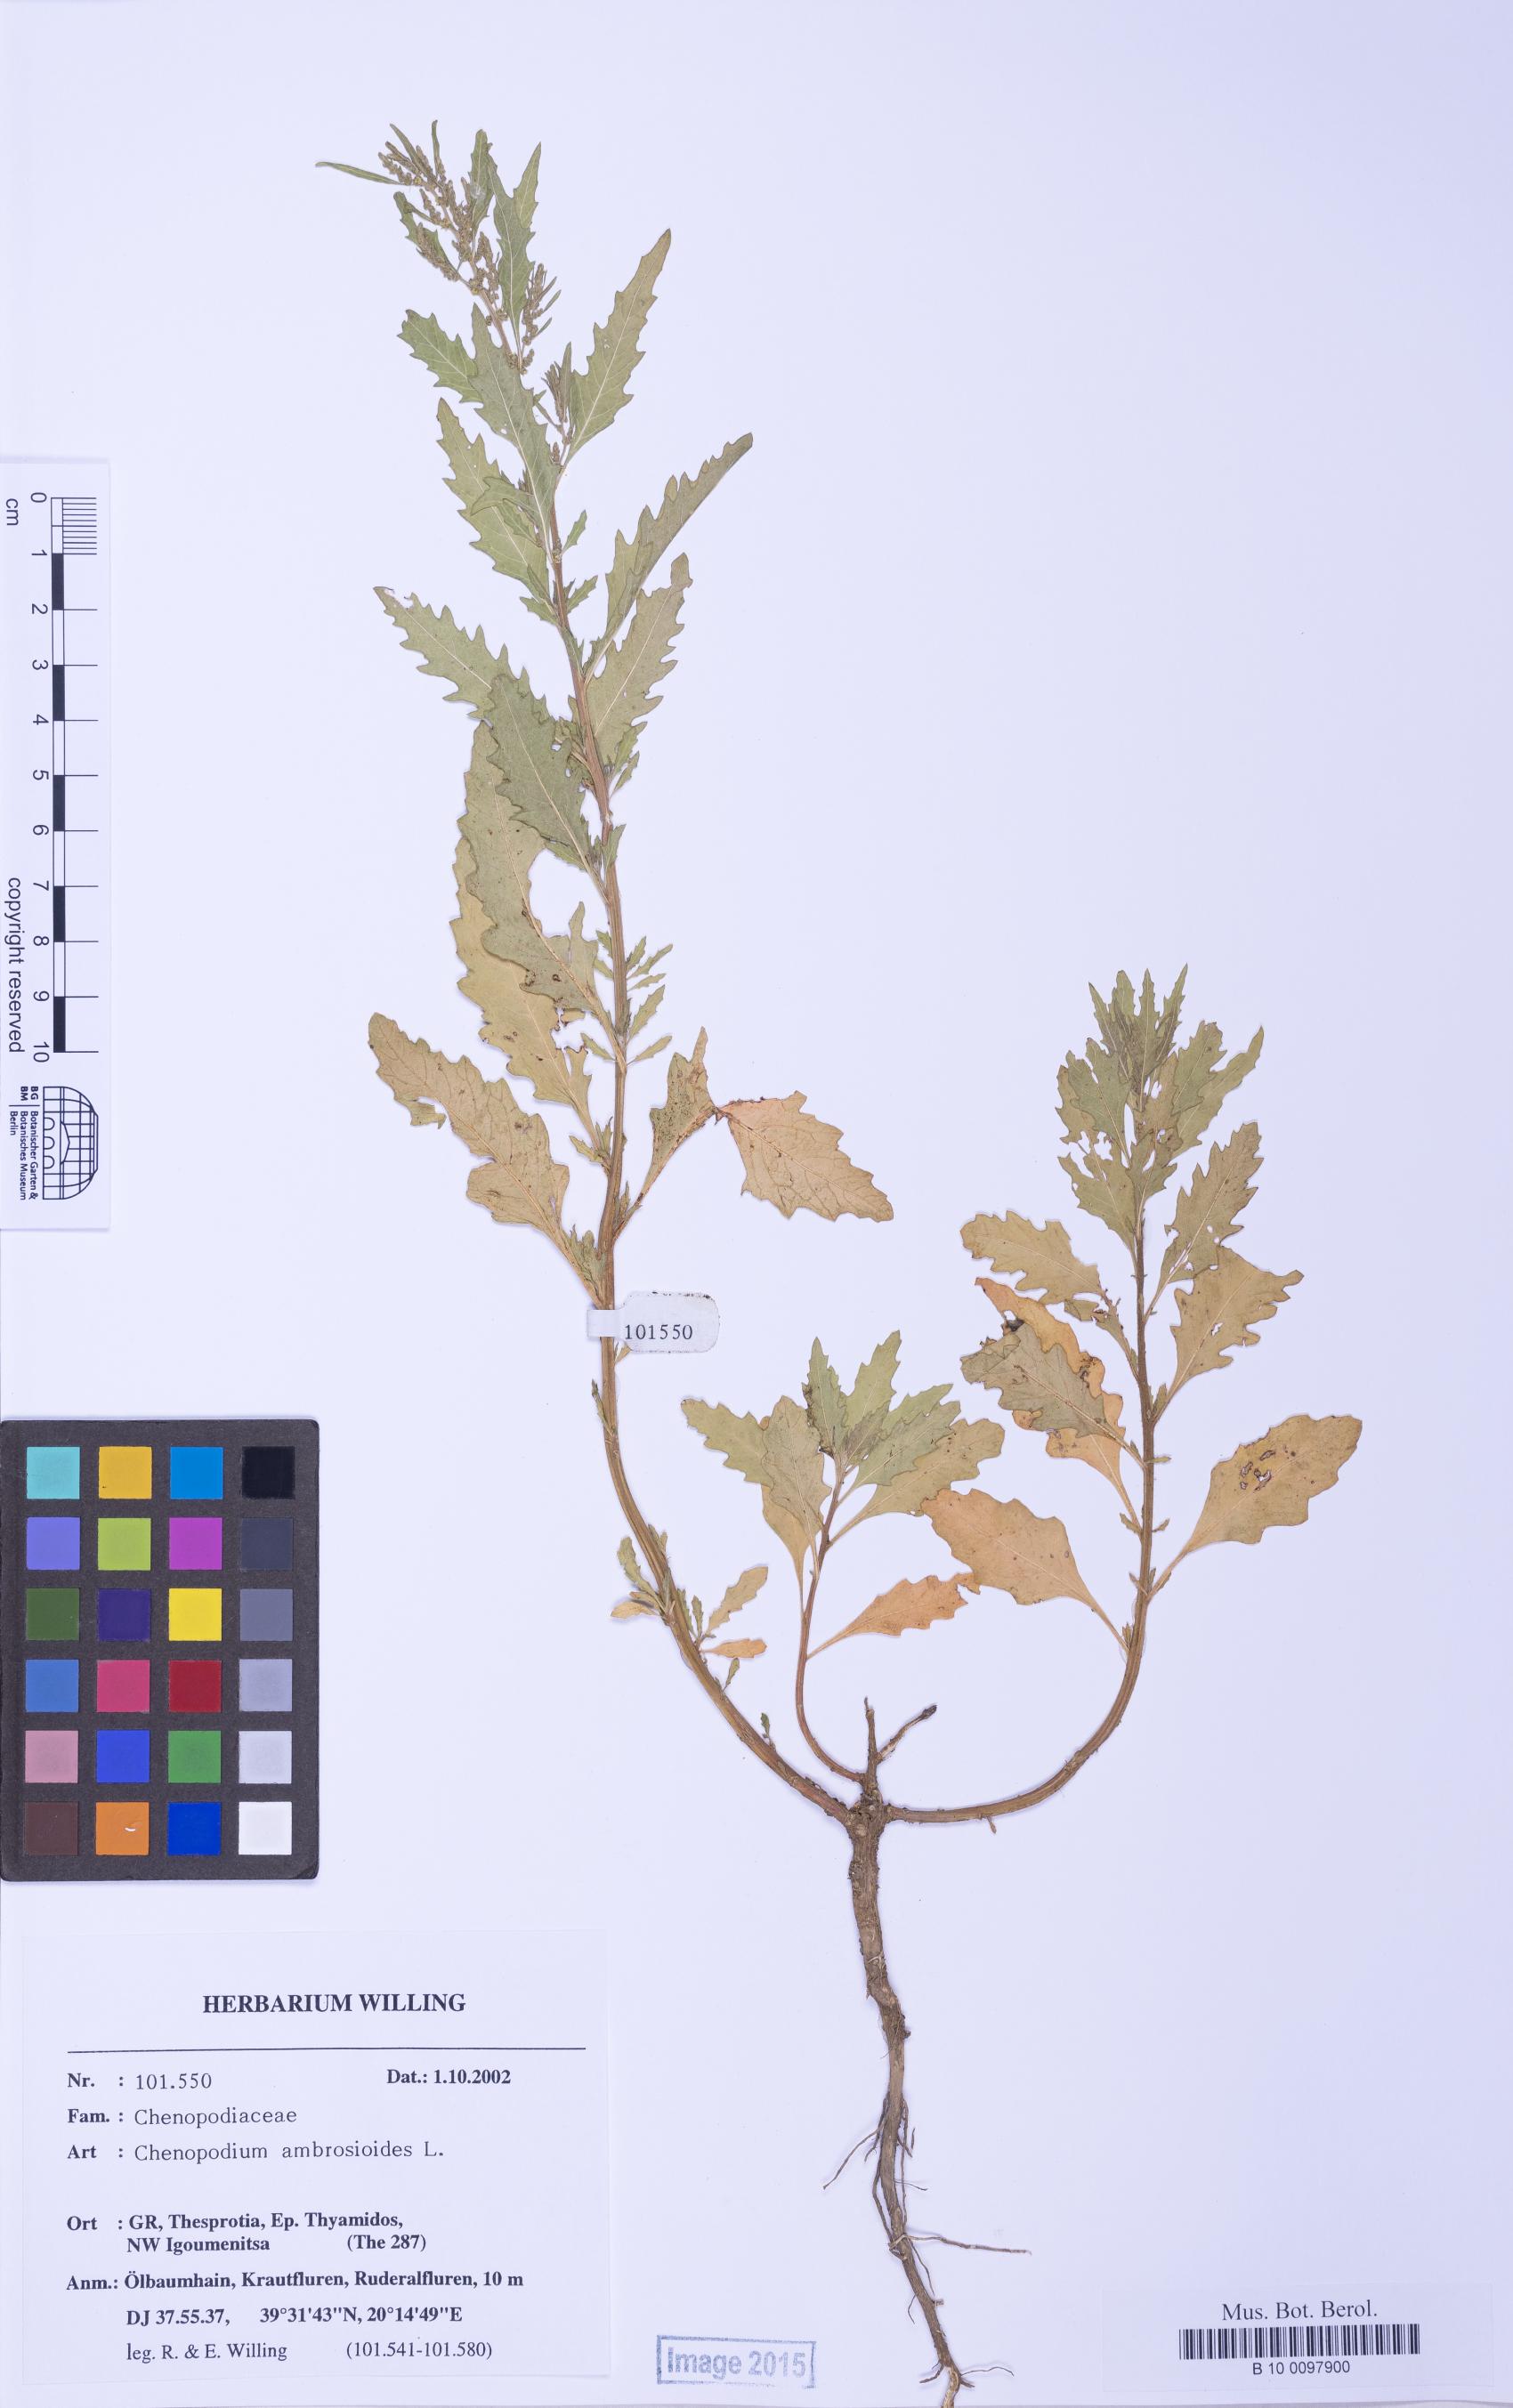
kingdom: Plantae
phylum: Tracheophyta
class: Magnoliopsida
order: Caryophyllales
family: Amaranthaceae
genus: Dysphania
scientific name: Dysphania ambrosioides
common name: Wormseed
